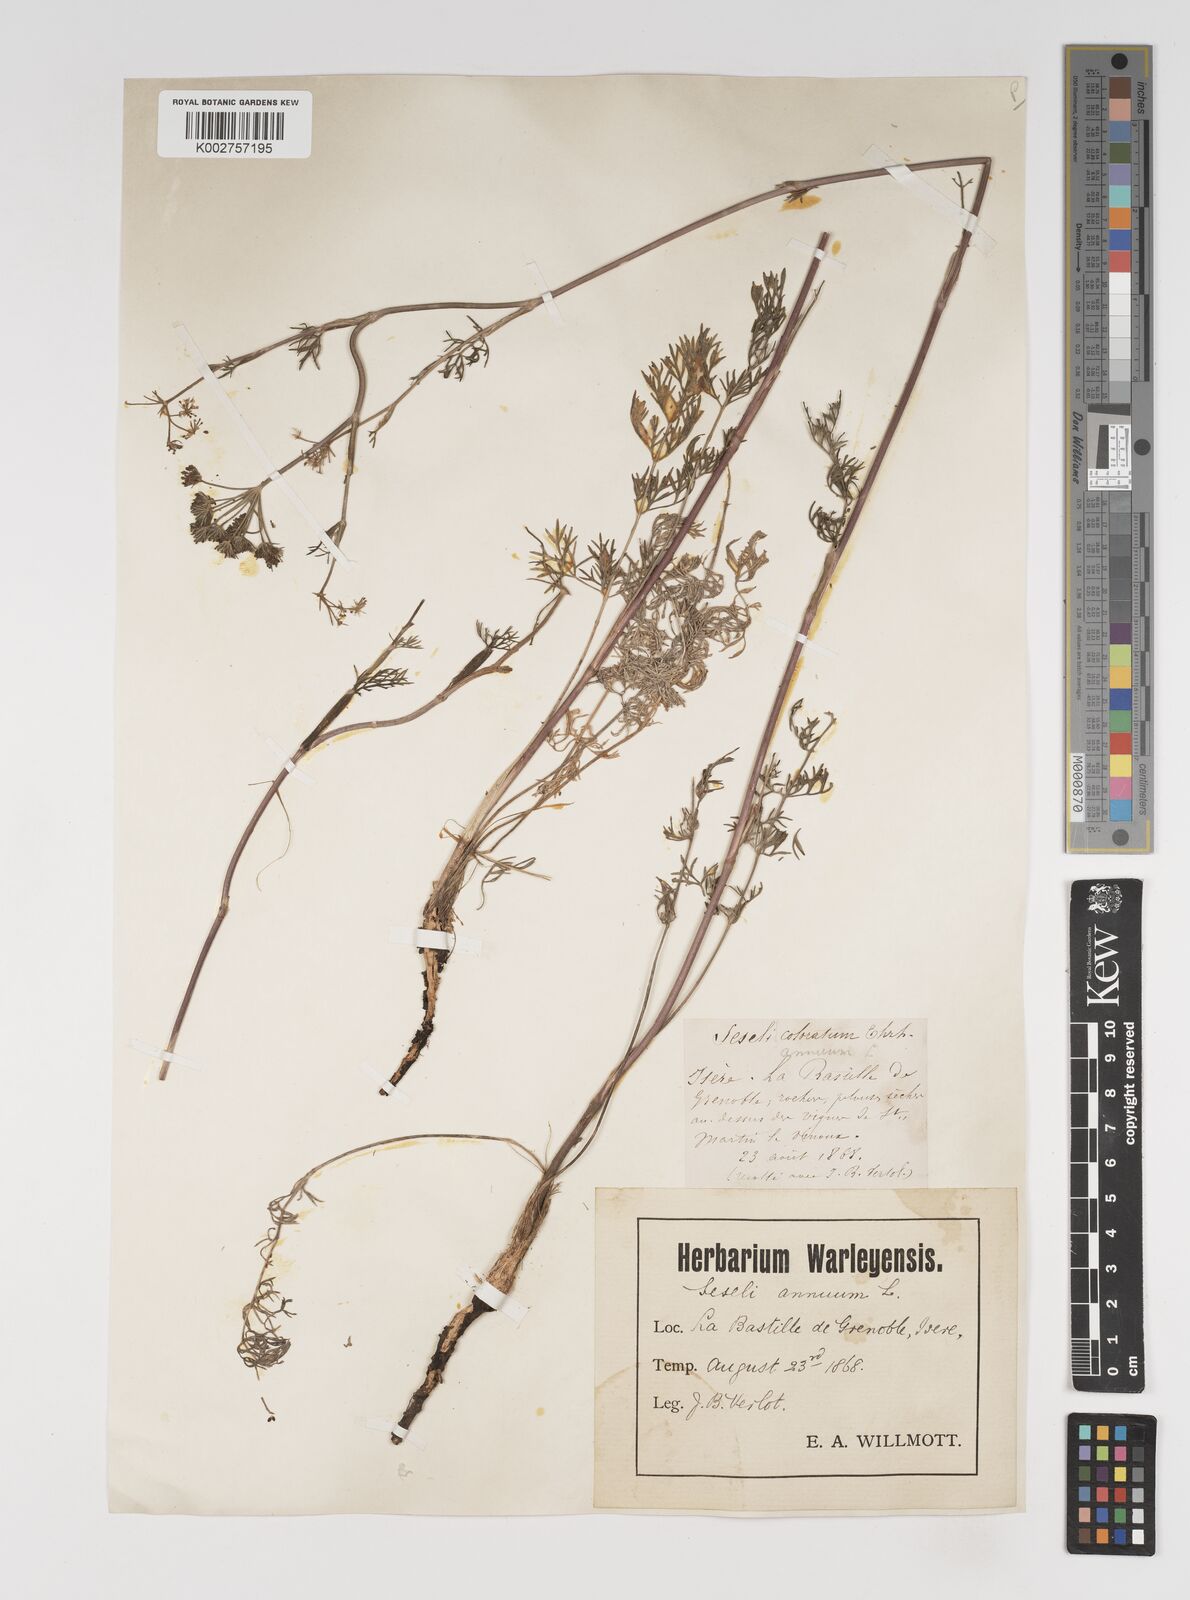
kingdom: Plantae
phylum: Tracheophyta
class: Magnoliopsida
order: Apiales
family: Apiaceae
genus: Seseli
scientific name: Seseli annuum
